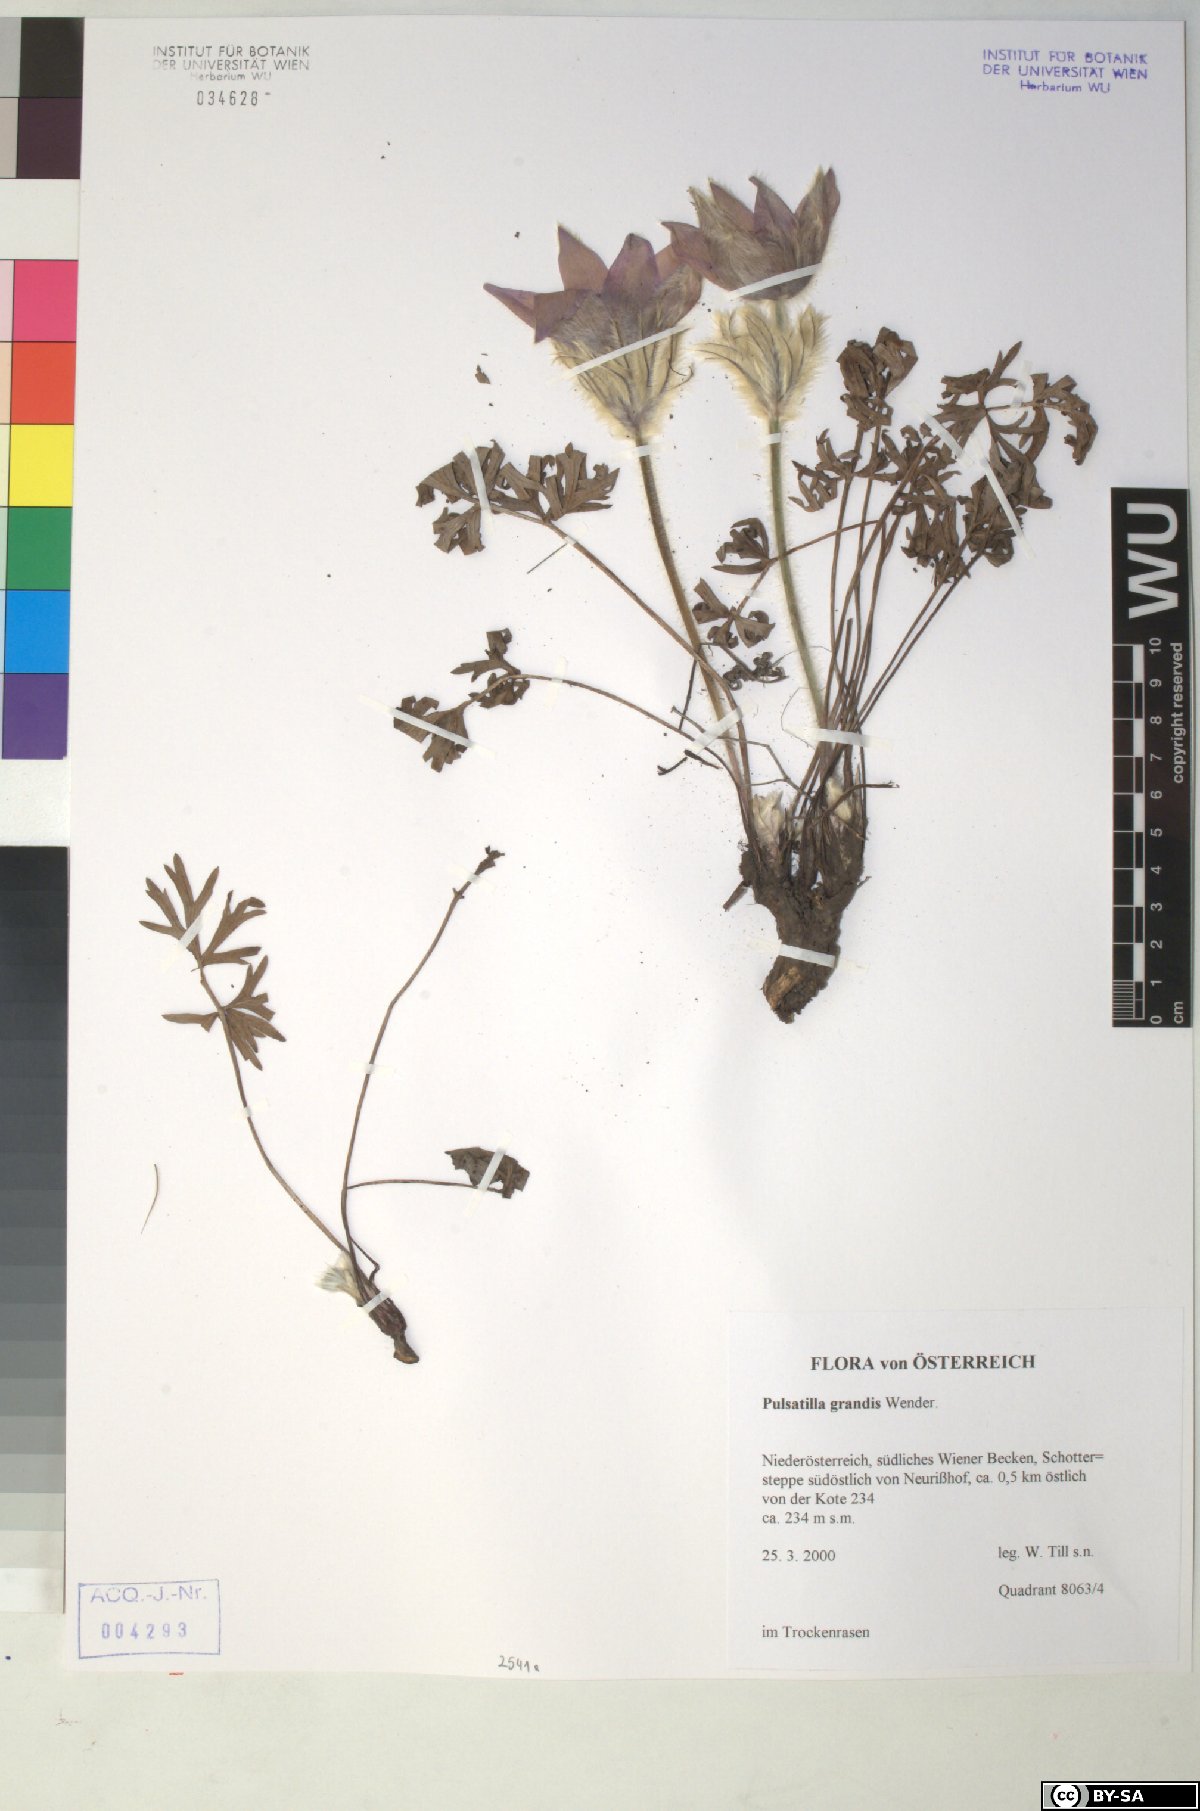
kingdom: Plantae
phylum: Tracheophyta
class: Magnoliopsida
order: Ranunculales
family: Ranunculaceae
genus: Pulsatilla
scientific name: Pulsatilla grandis
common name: Greater pasque flower
